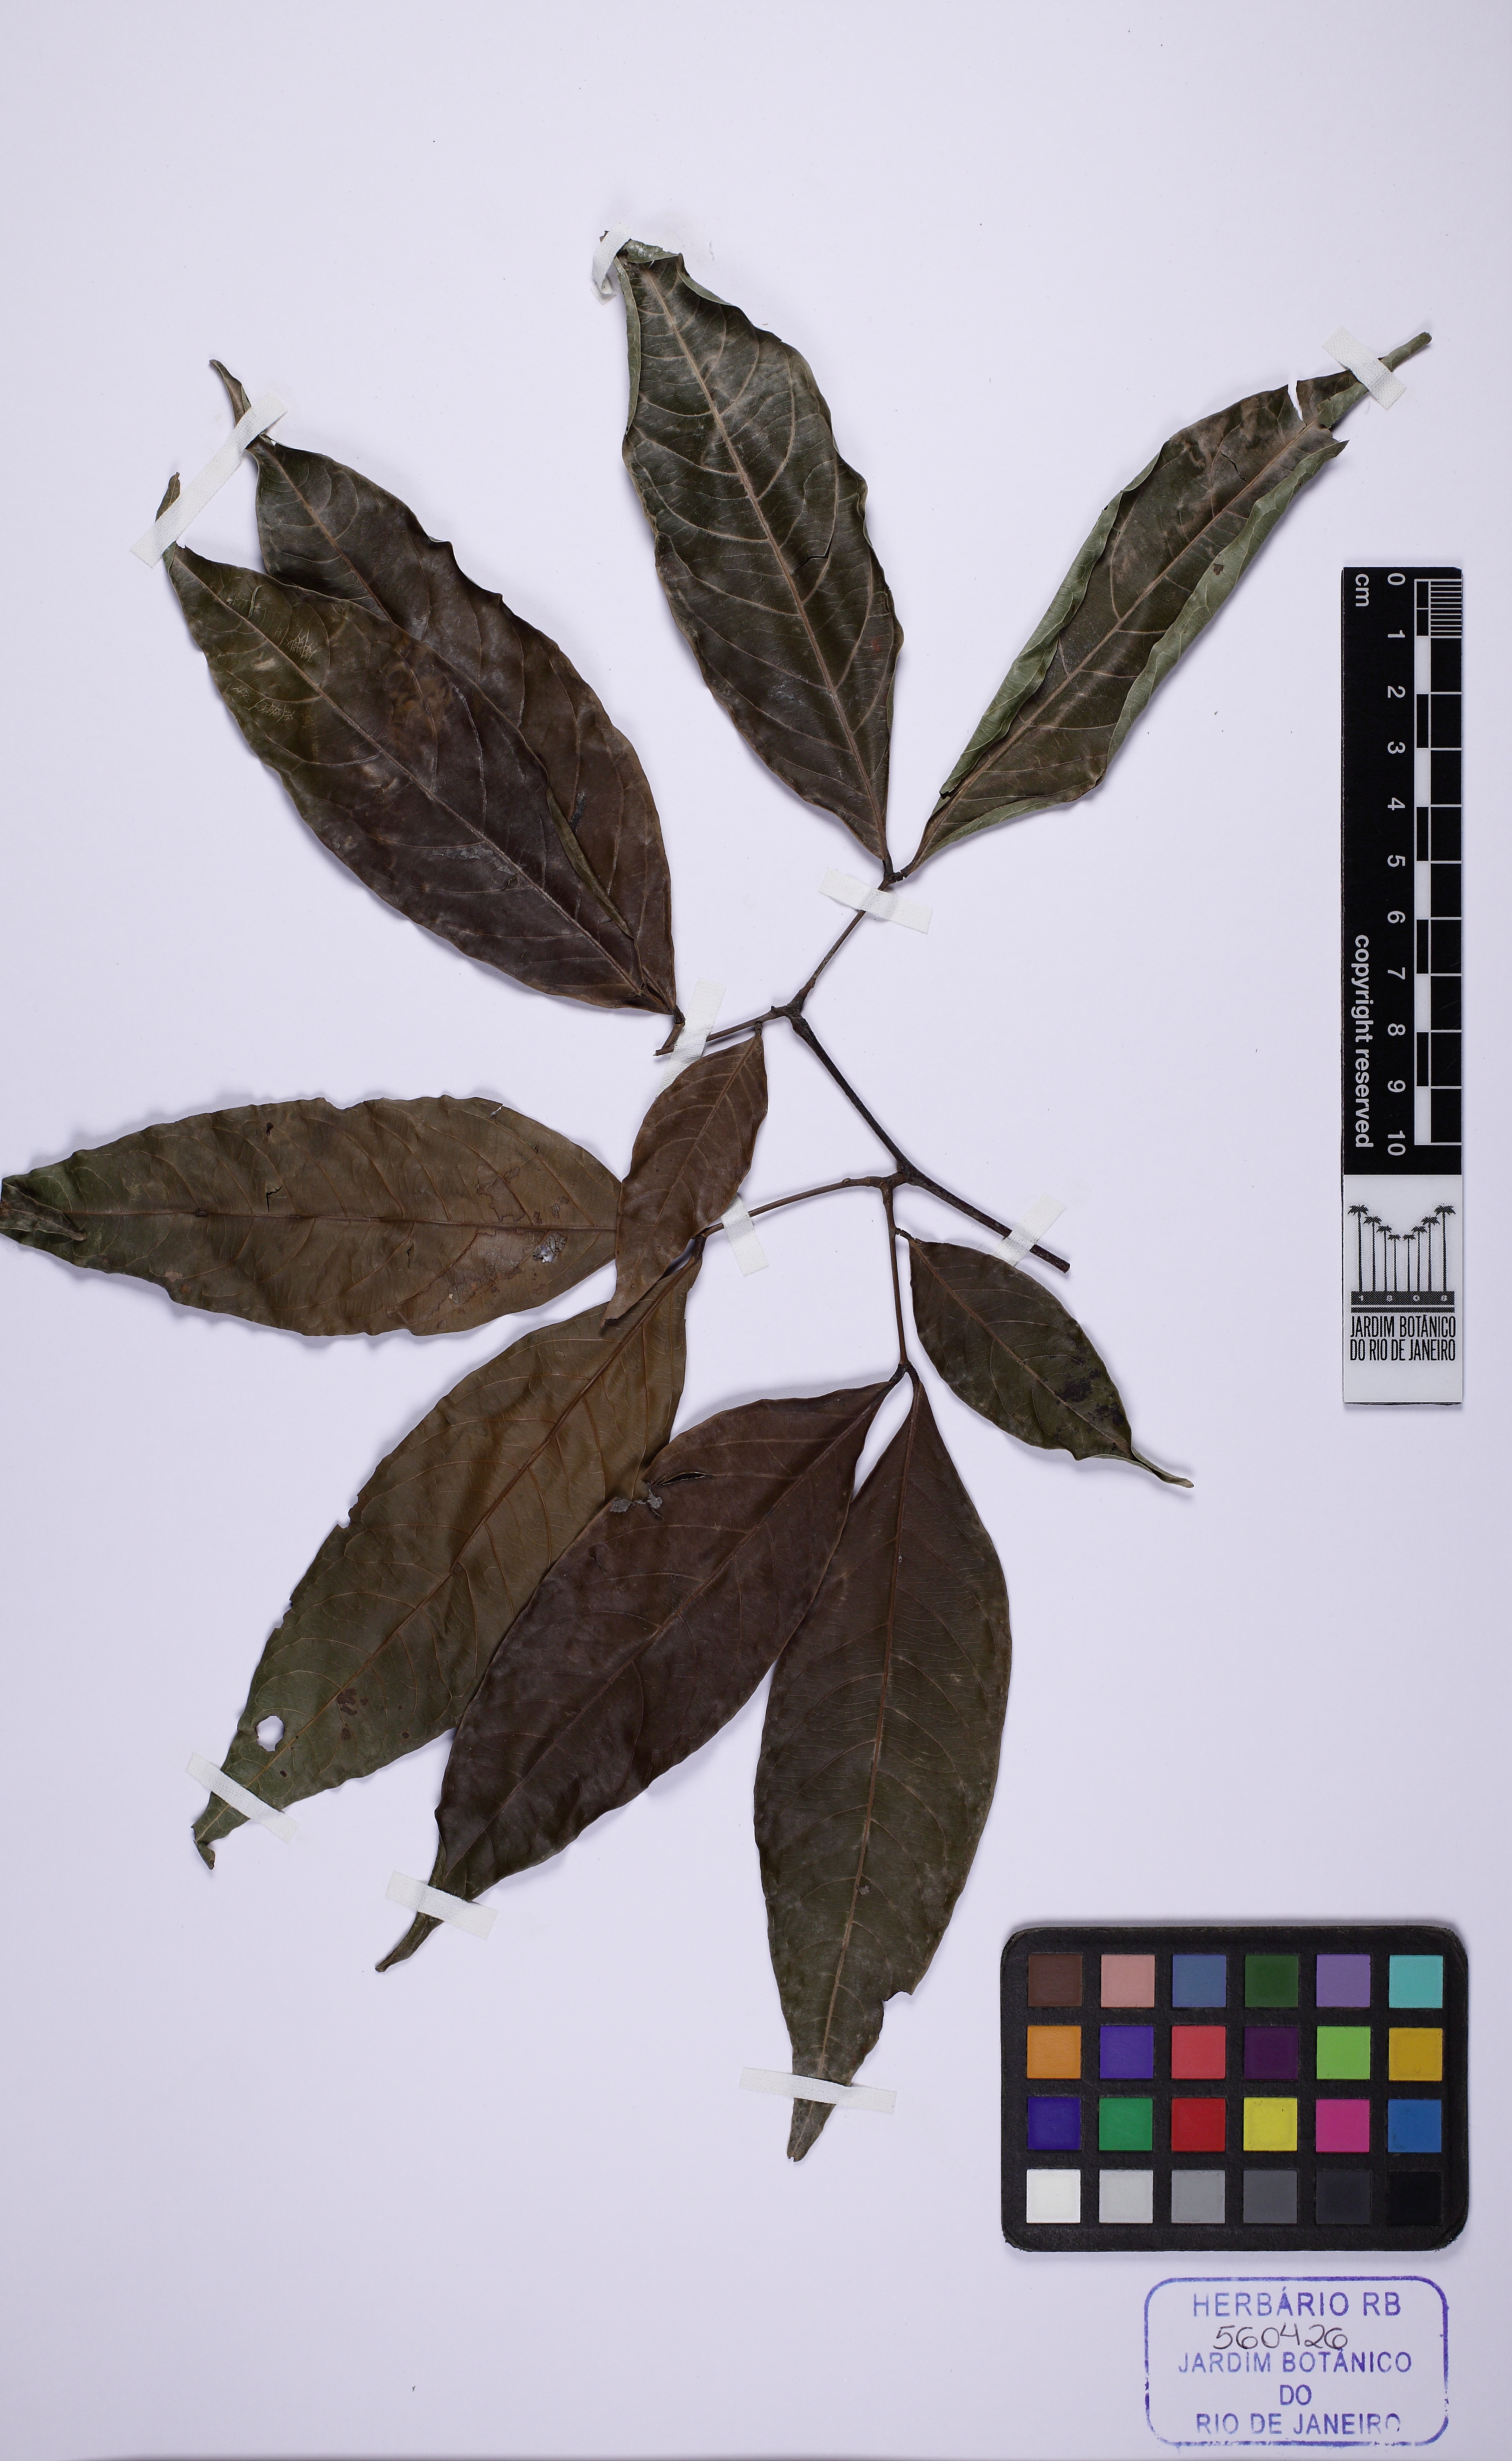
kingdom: Plantae
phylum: Tracheophyta
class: Magnoliopsida
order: Fabales
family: Fabaceae
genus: Zygia
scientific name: Zygia cataractae
